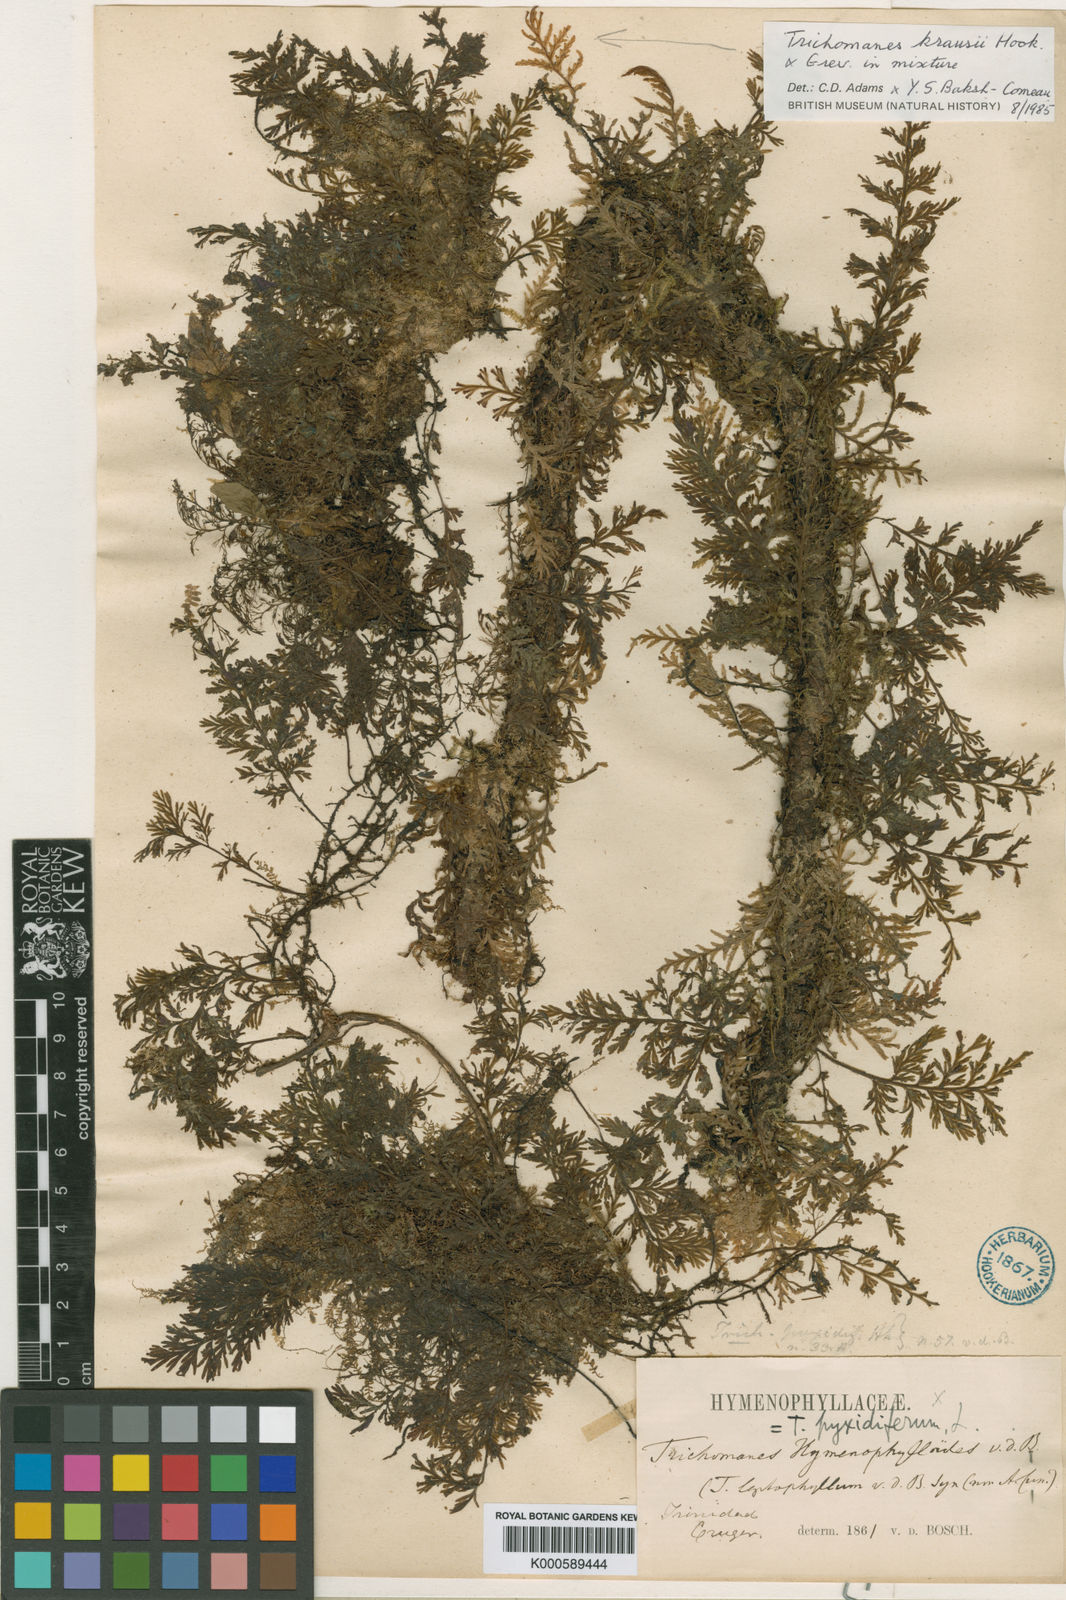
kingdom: Plantae
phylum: Tracheophyta
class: Polypodiopsida
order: Hymenophyllales
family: Hymenophyllaceae
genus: Polyphlebium
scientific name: Polyphlebium hymenophylloides
